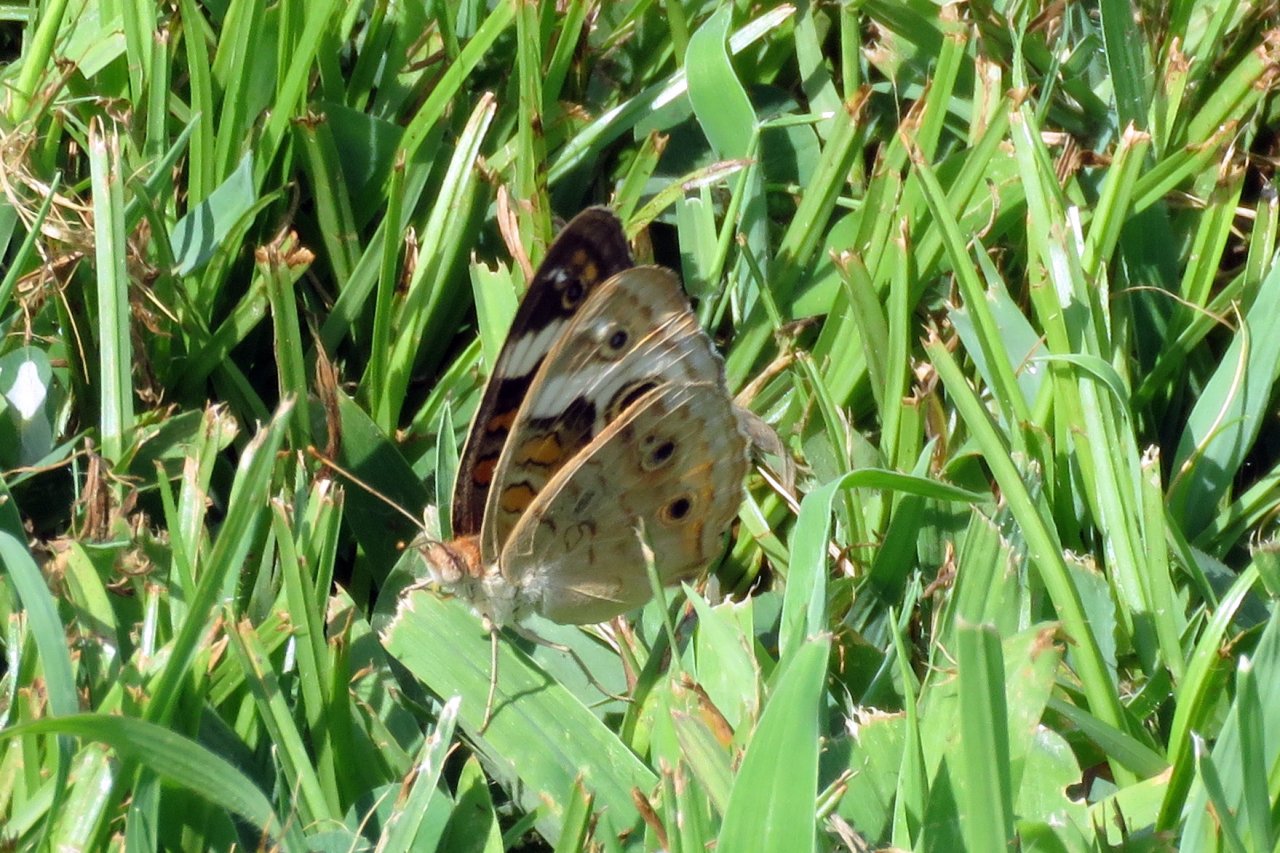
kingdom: Animalia
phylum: Arthropoda
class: Insecta
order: Lepidoptera
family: Nymphalidae
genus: Junonia
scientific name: Junonia coenia
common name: Common Buckeye
